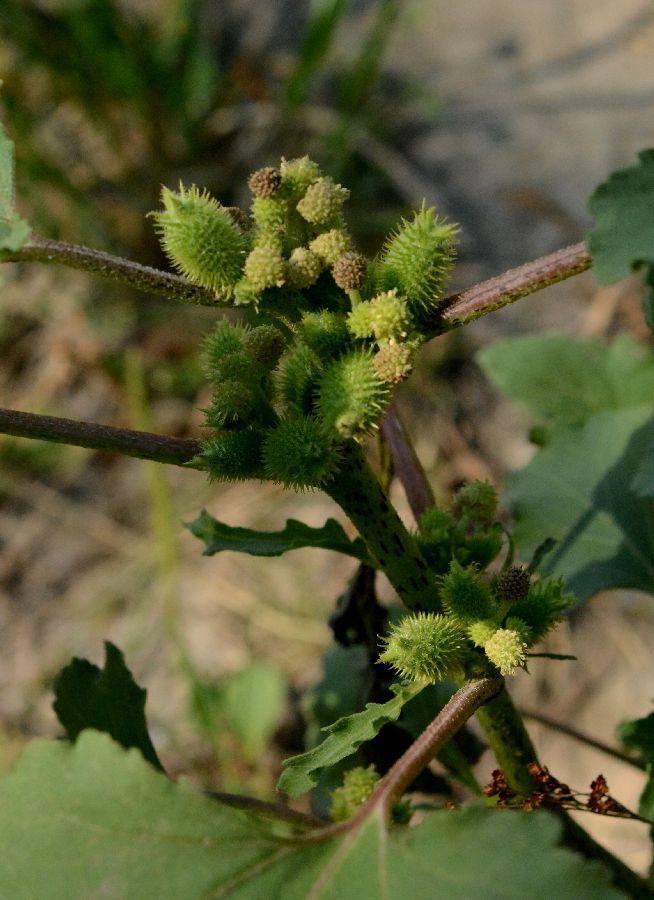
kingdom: Plantae
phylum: Tracheophyta
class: Magnoliopsida
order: Asterales
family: Asteraceae
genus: Xanthium
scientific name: Xanthium orientale
